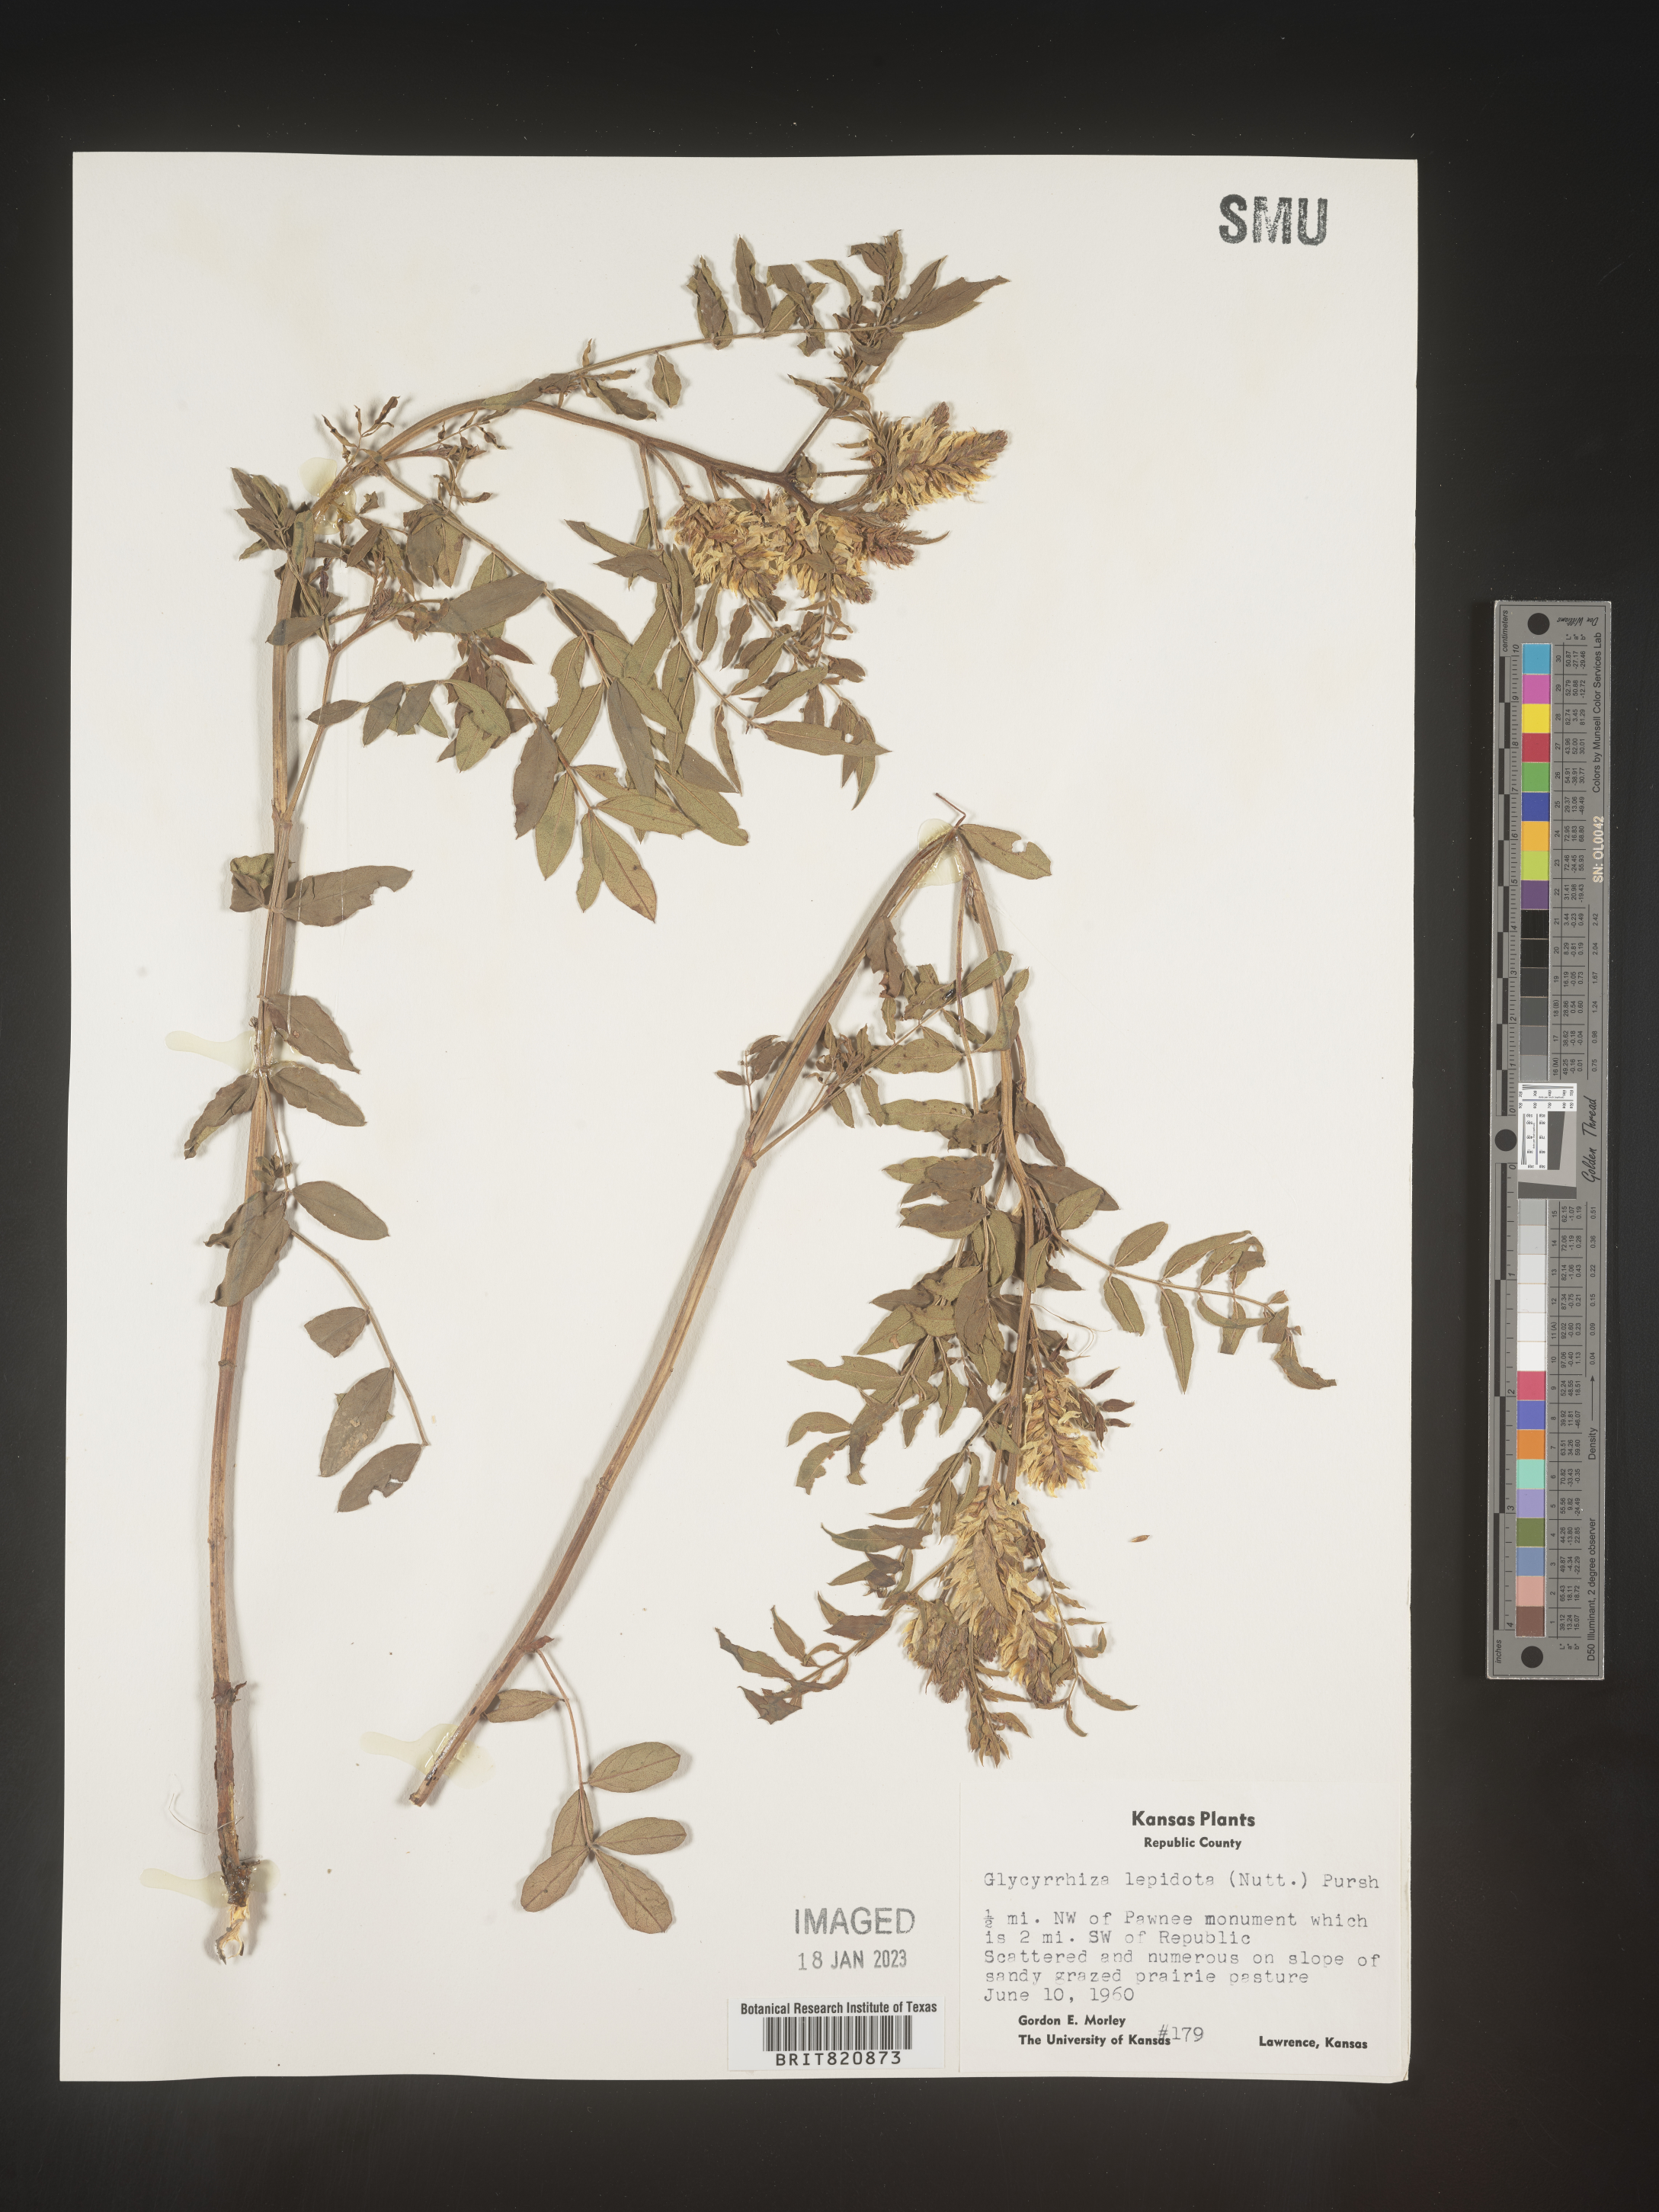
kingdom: Plantae
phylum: Tracheophyta
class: Magnoliopsida
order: Fabales
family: Fabaceae
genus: Glycyrrhiza
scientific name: Glycyrrhiza lepidota
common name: American liquorice
